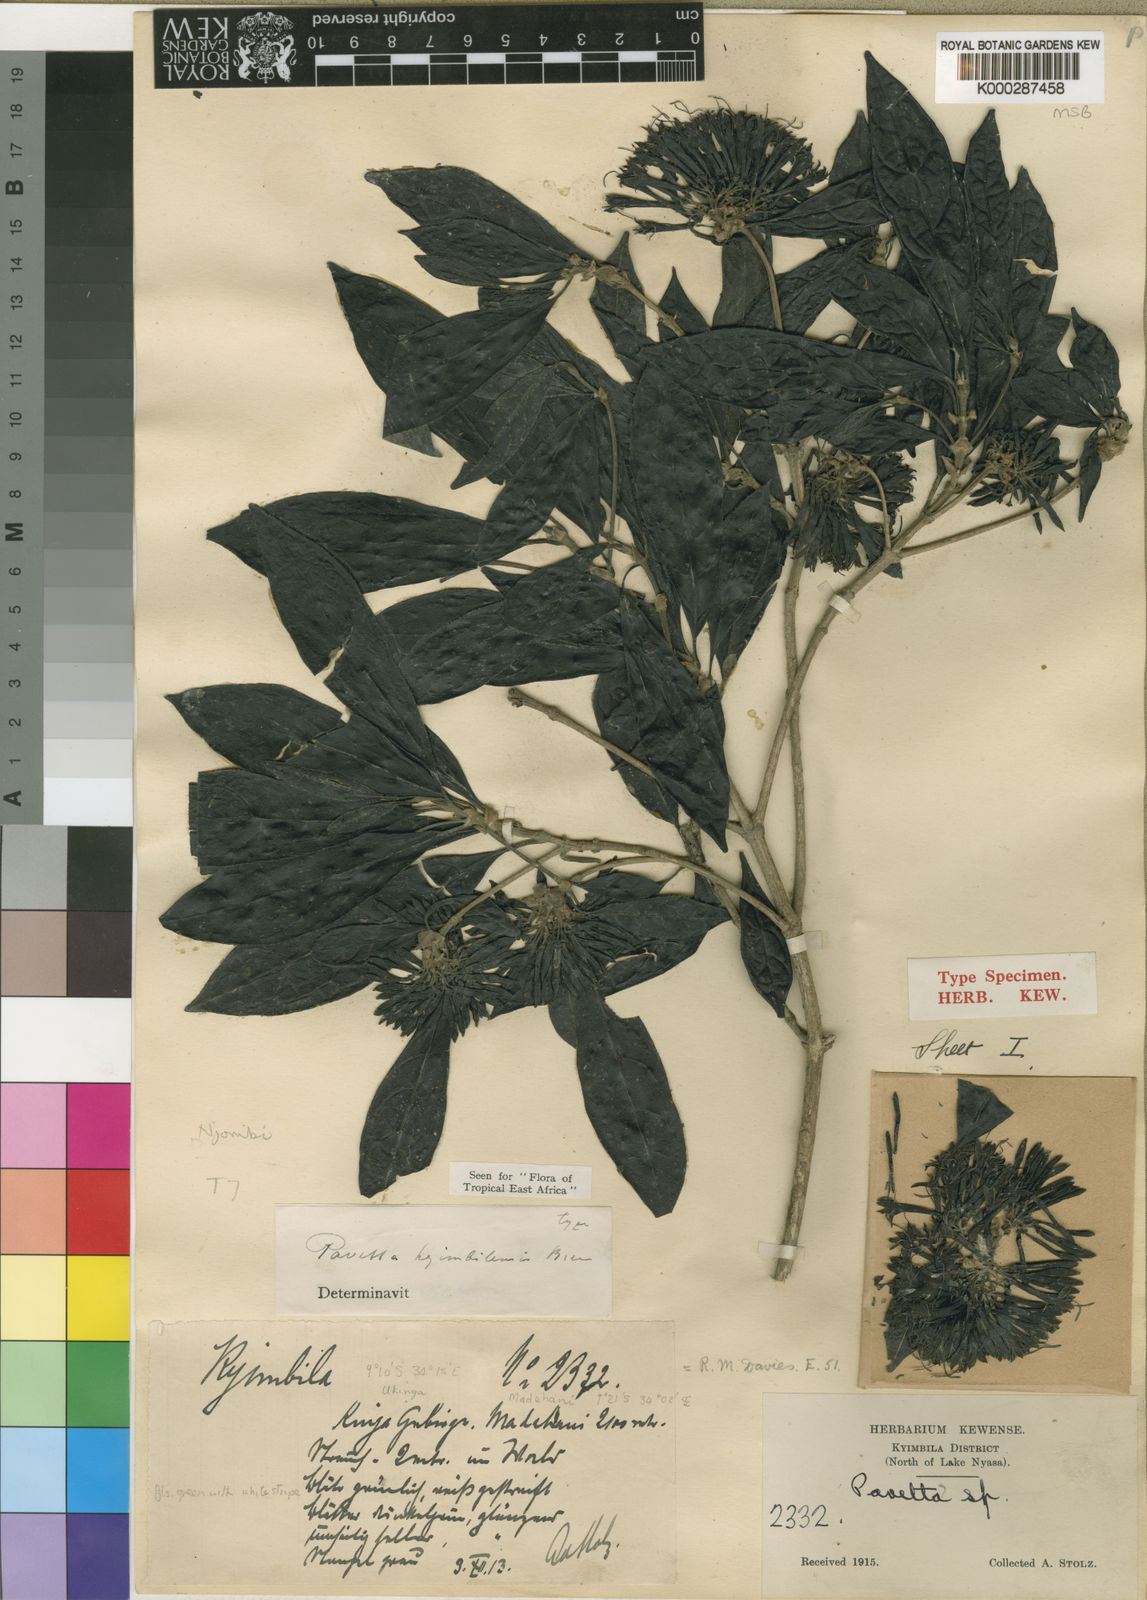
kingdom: Plantae
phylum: Tracheophyta
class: Magnoliopsida
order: Gentianales
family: Rubiaceae
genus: Pavetta
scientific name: Pavetta kyimbilensis
